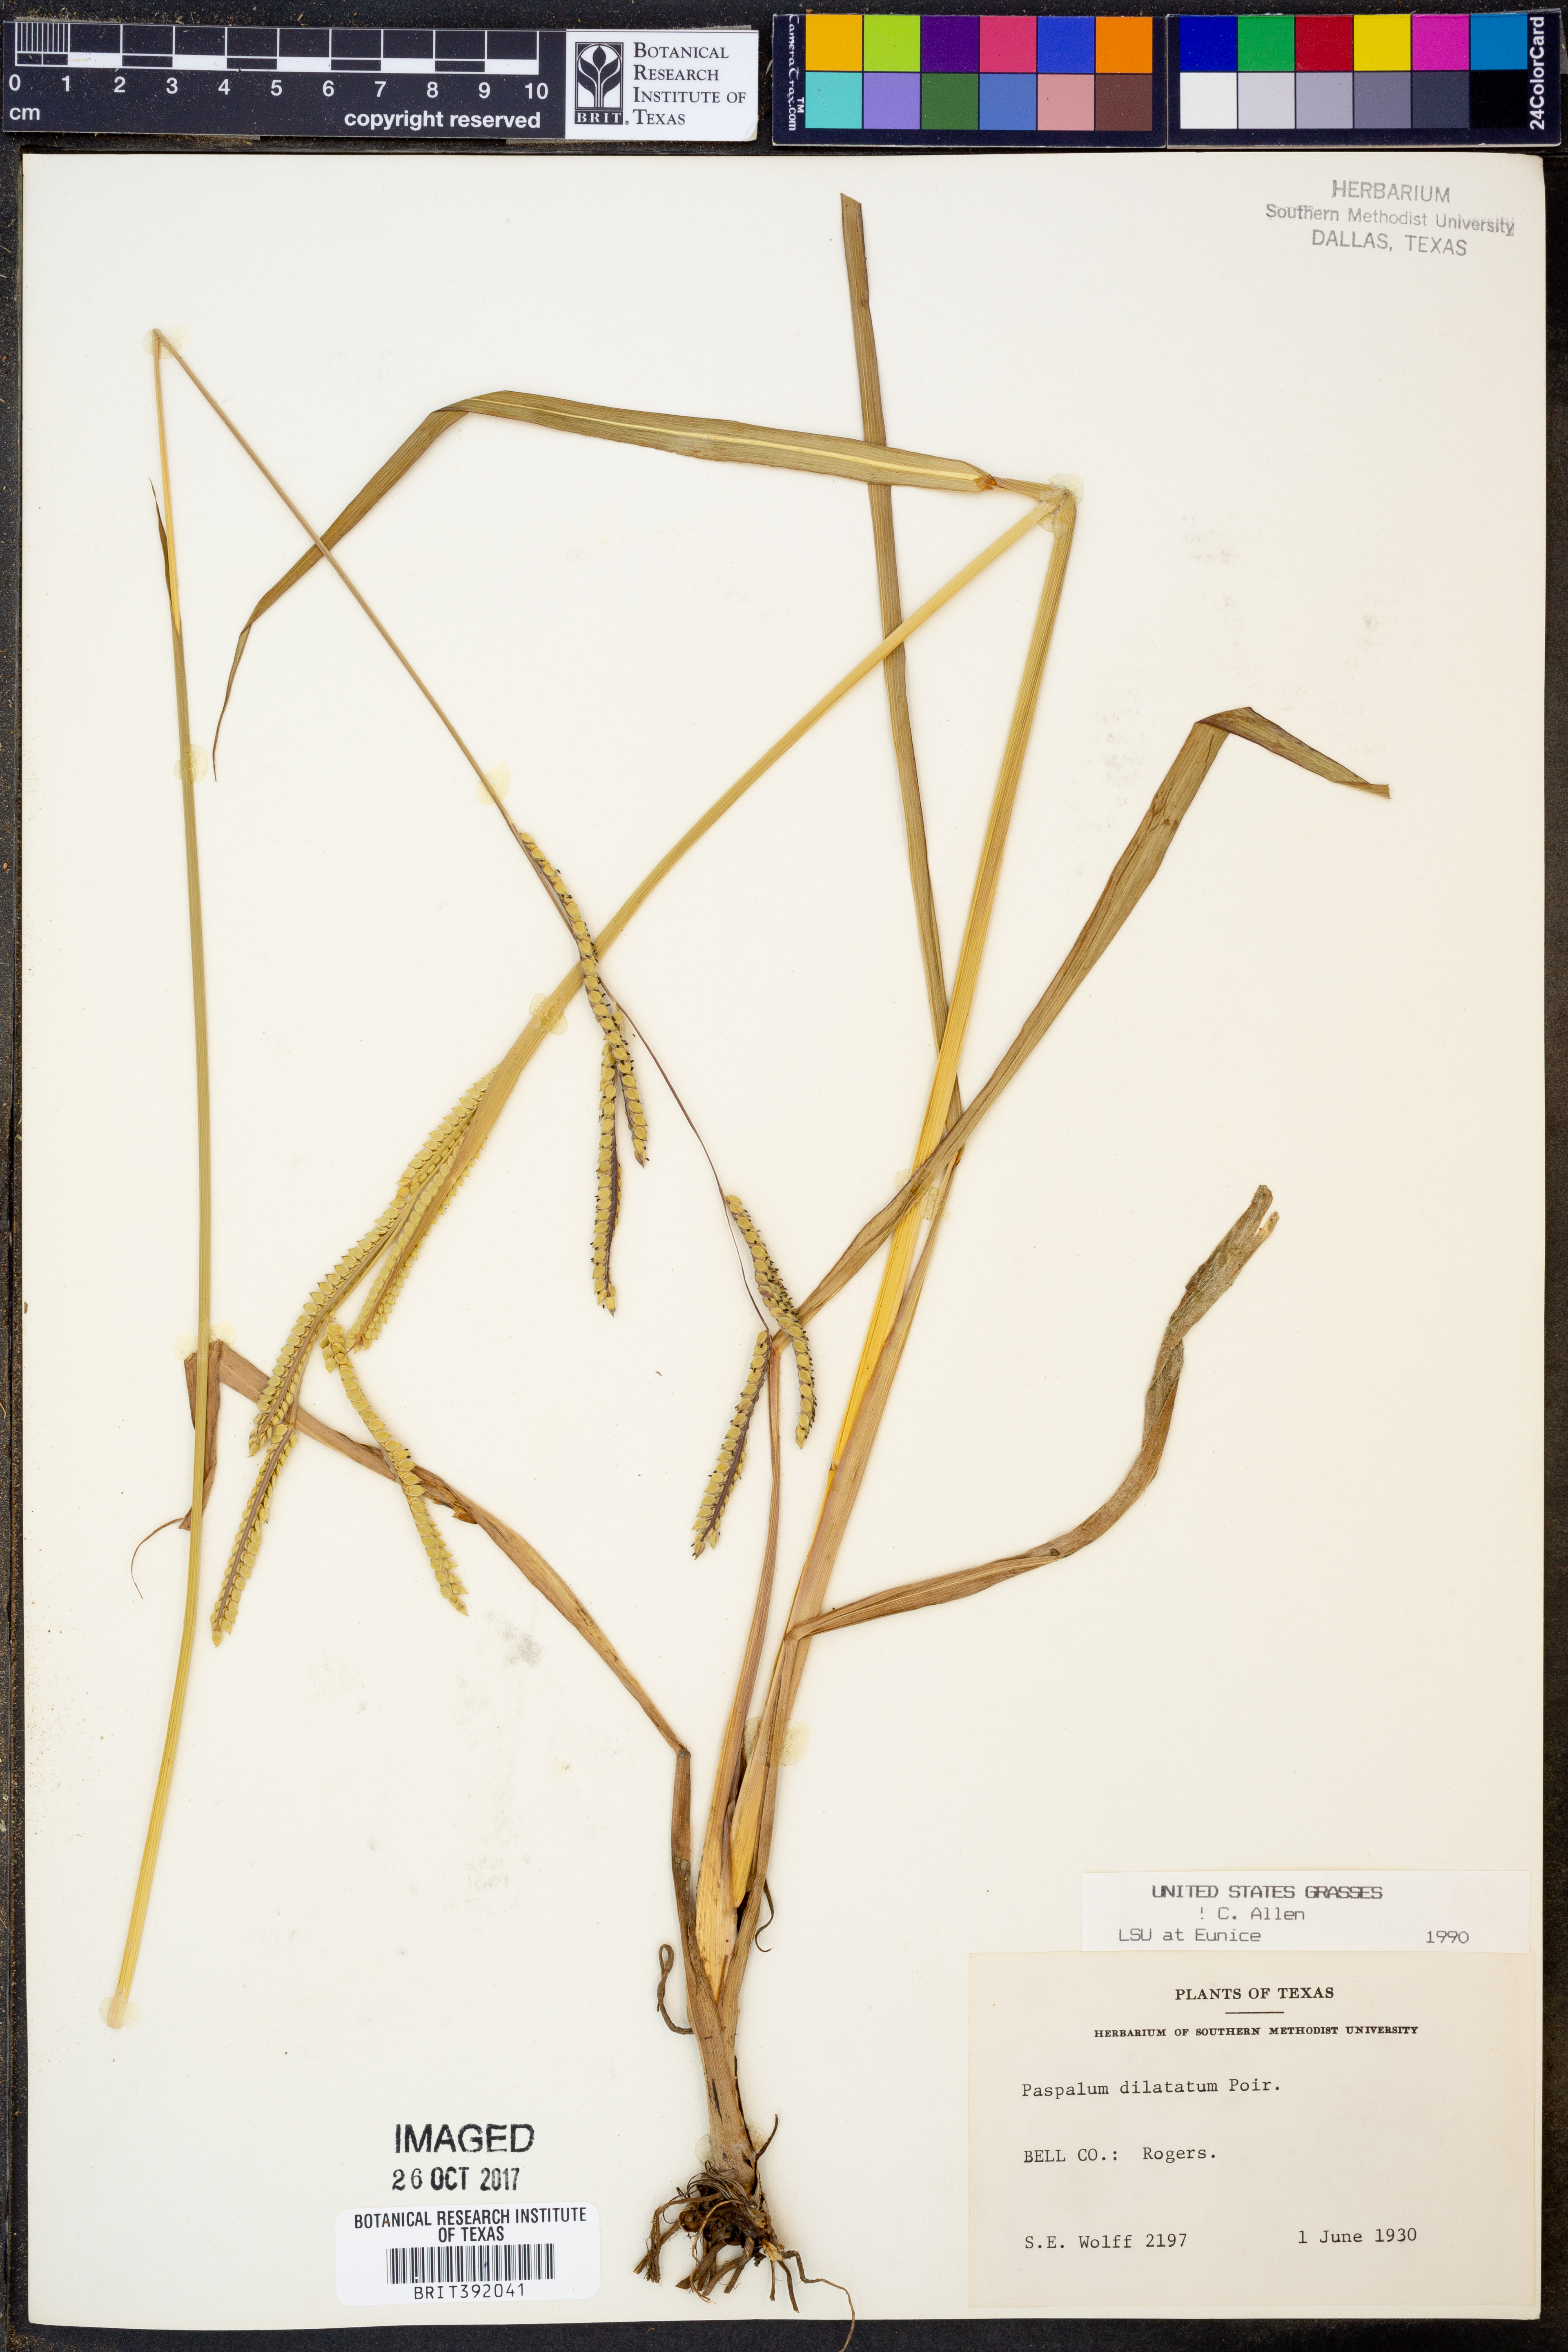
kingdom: Plantae
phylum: Tracheophyta
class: Liliopsida
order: Poales
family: Poaceae
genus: Paspalum
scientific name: Paspalum dilatatum
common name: Dallisgrass
